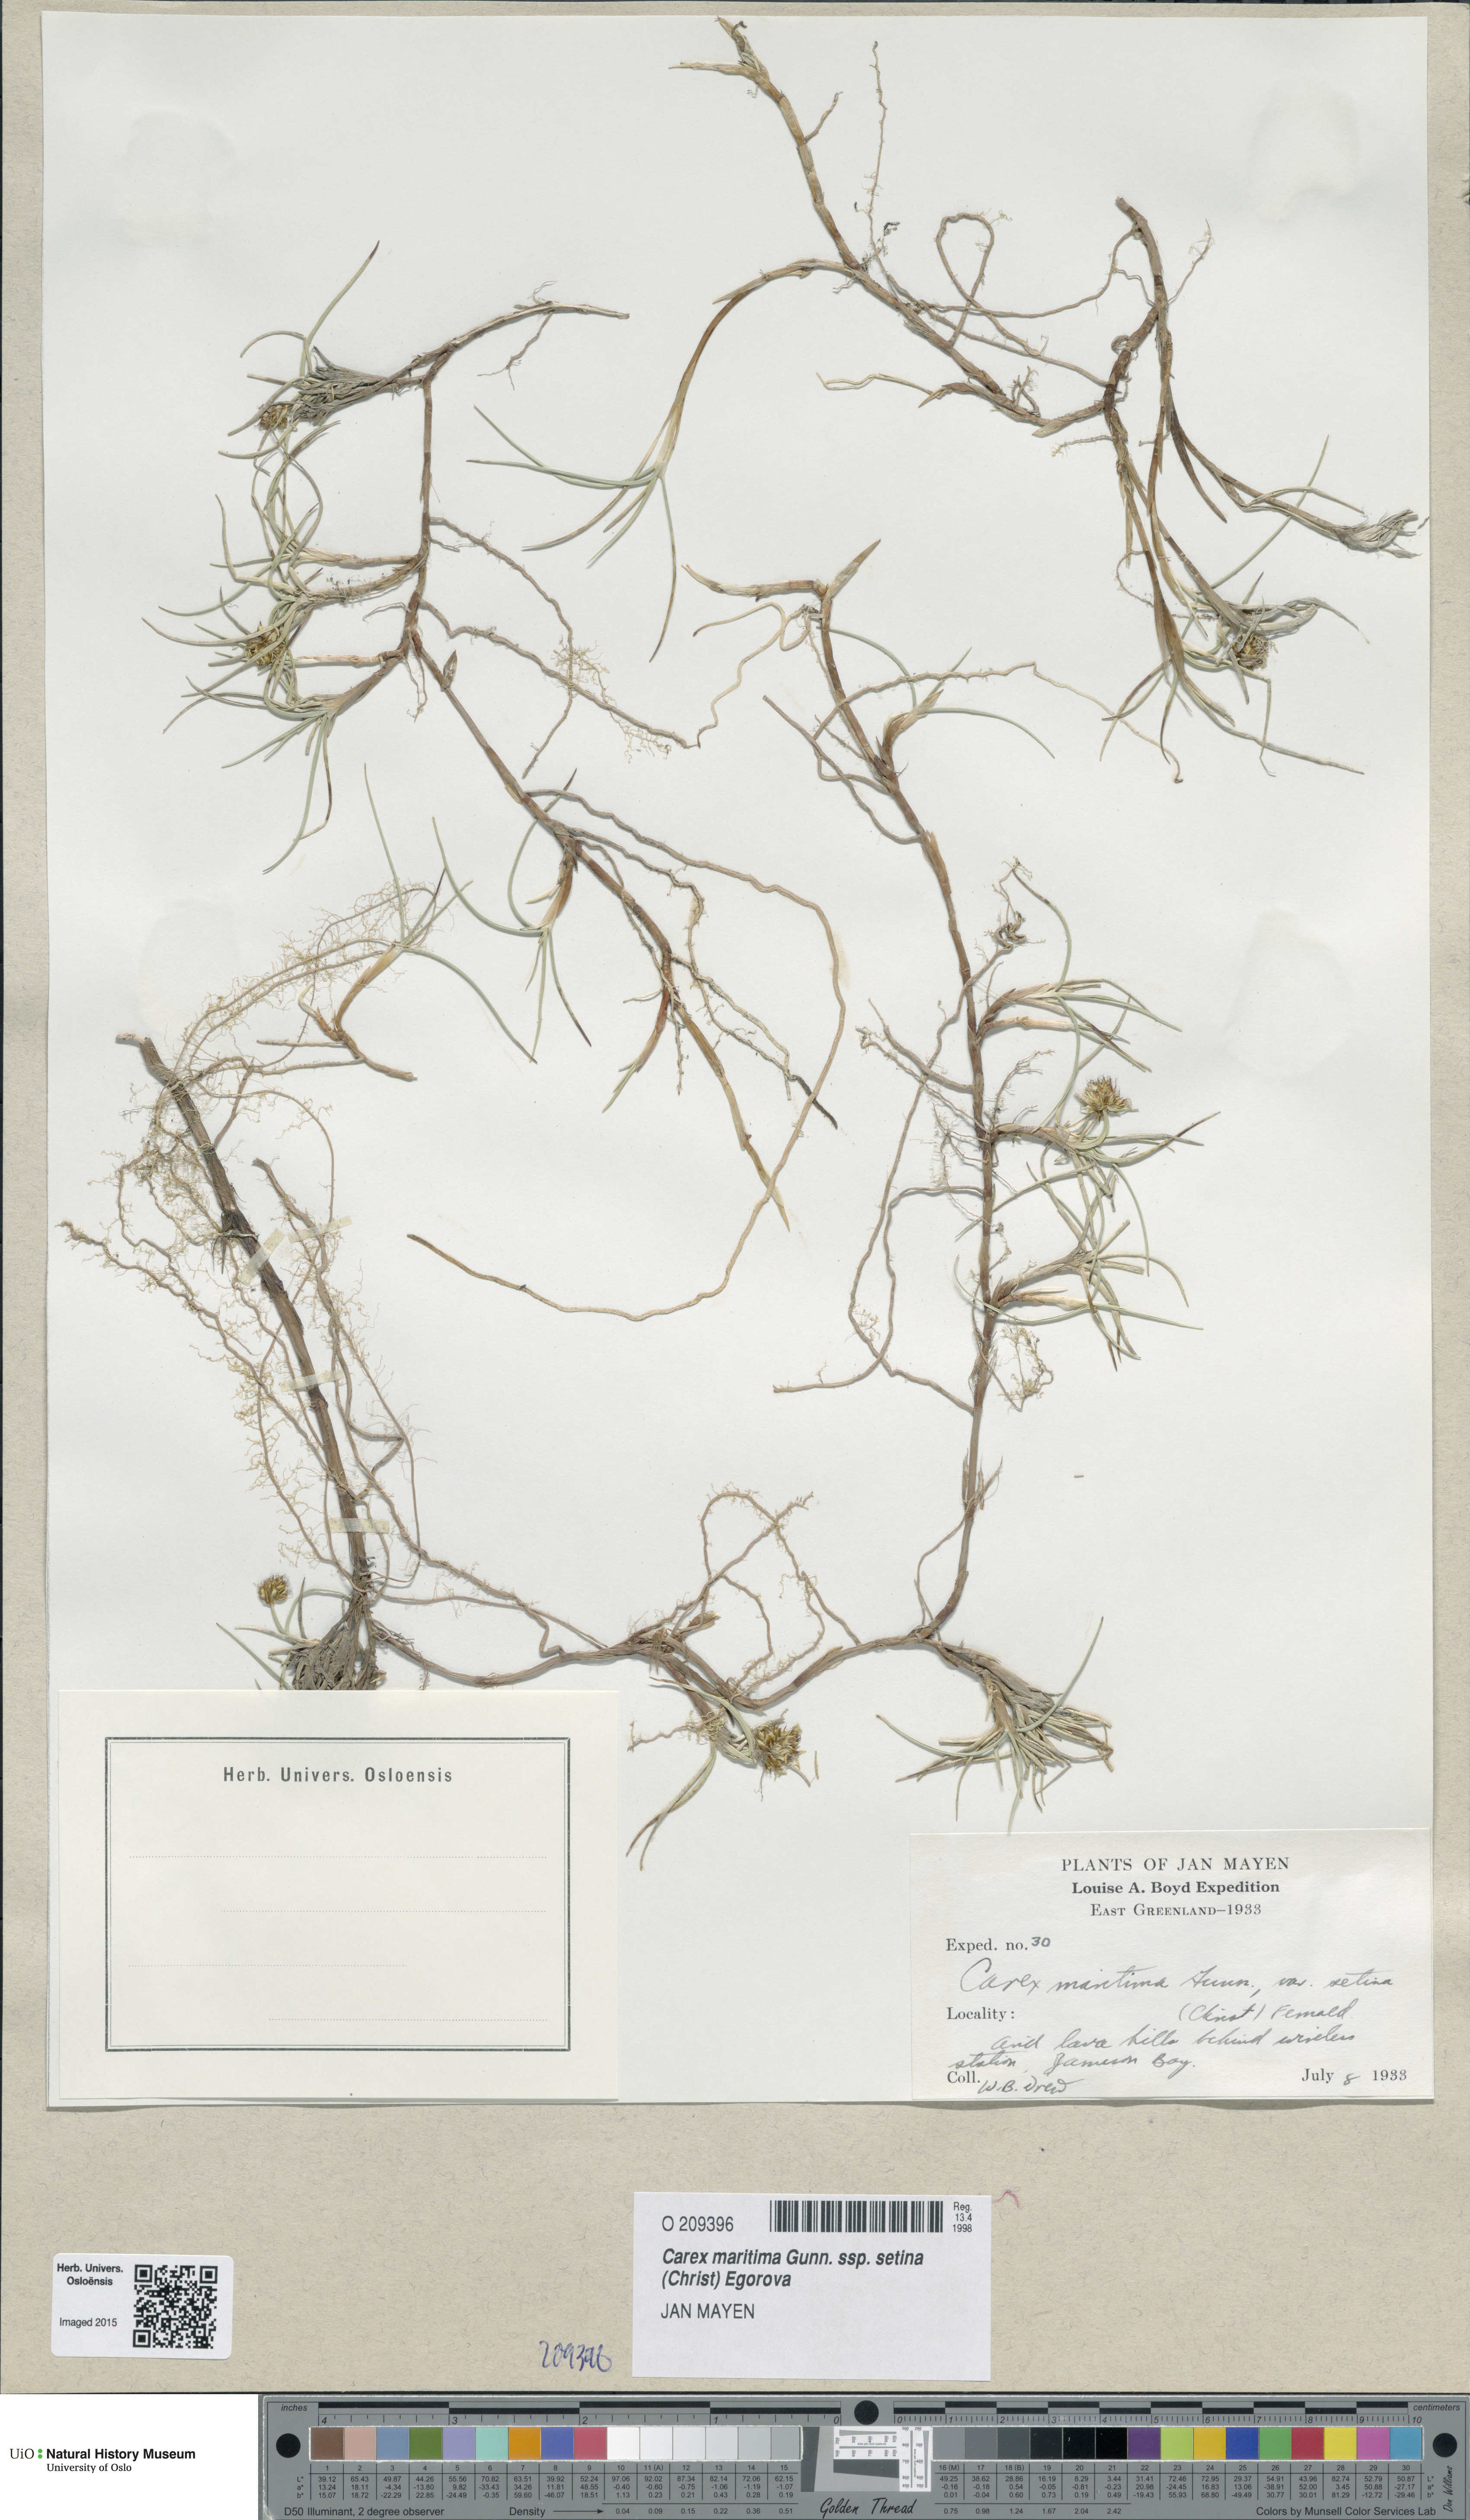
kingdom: Plantae
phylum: Tracheophyta
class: Liliopsida
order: Poales
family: Cyperaceae
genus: Carex
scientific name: Carex maritima
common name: Curved sedge
